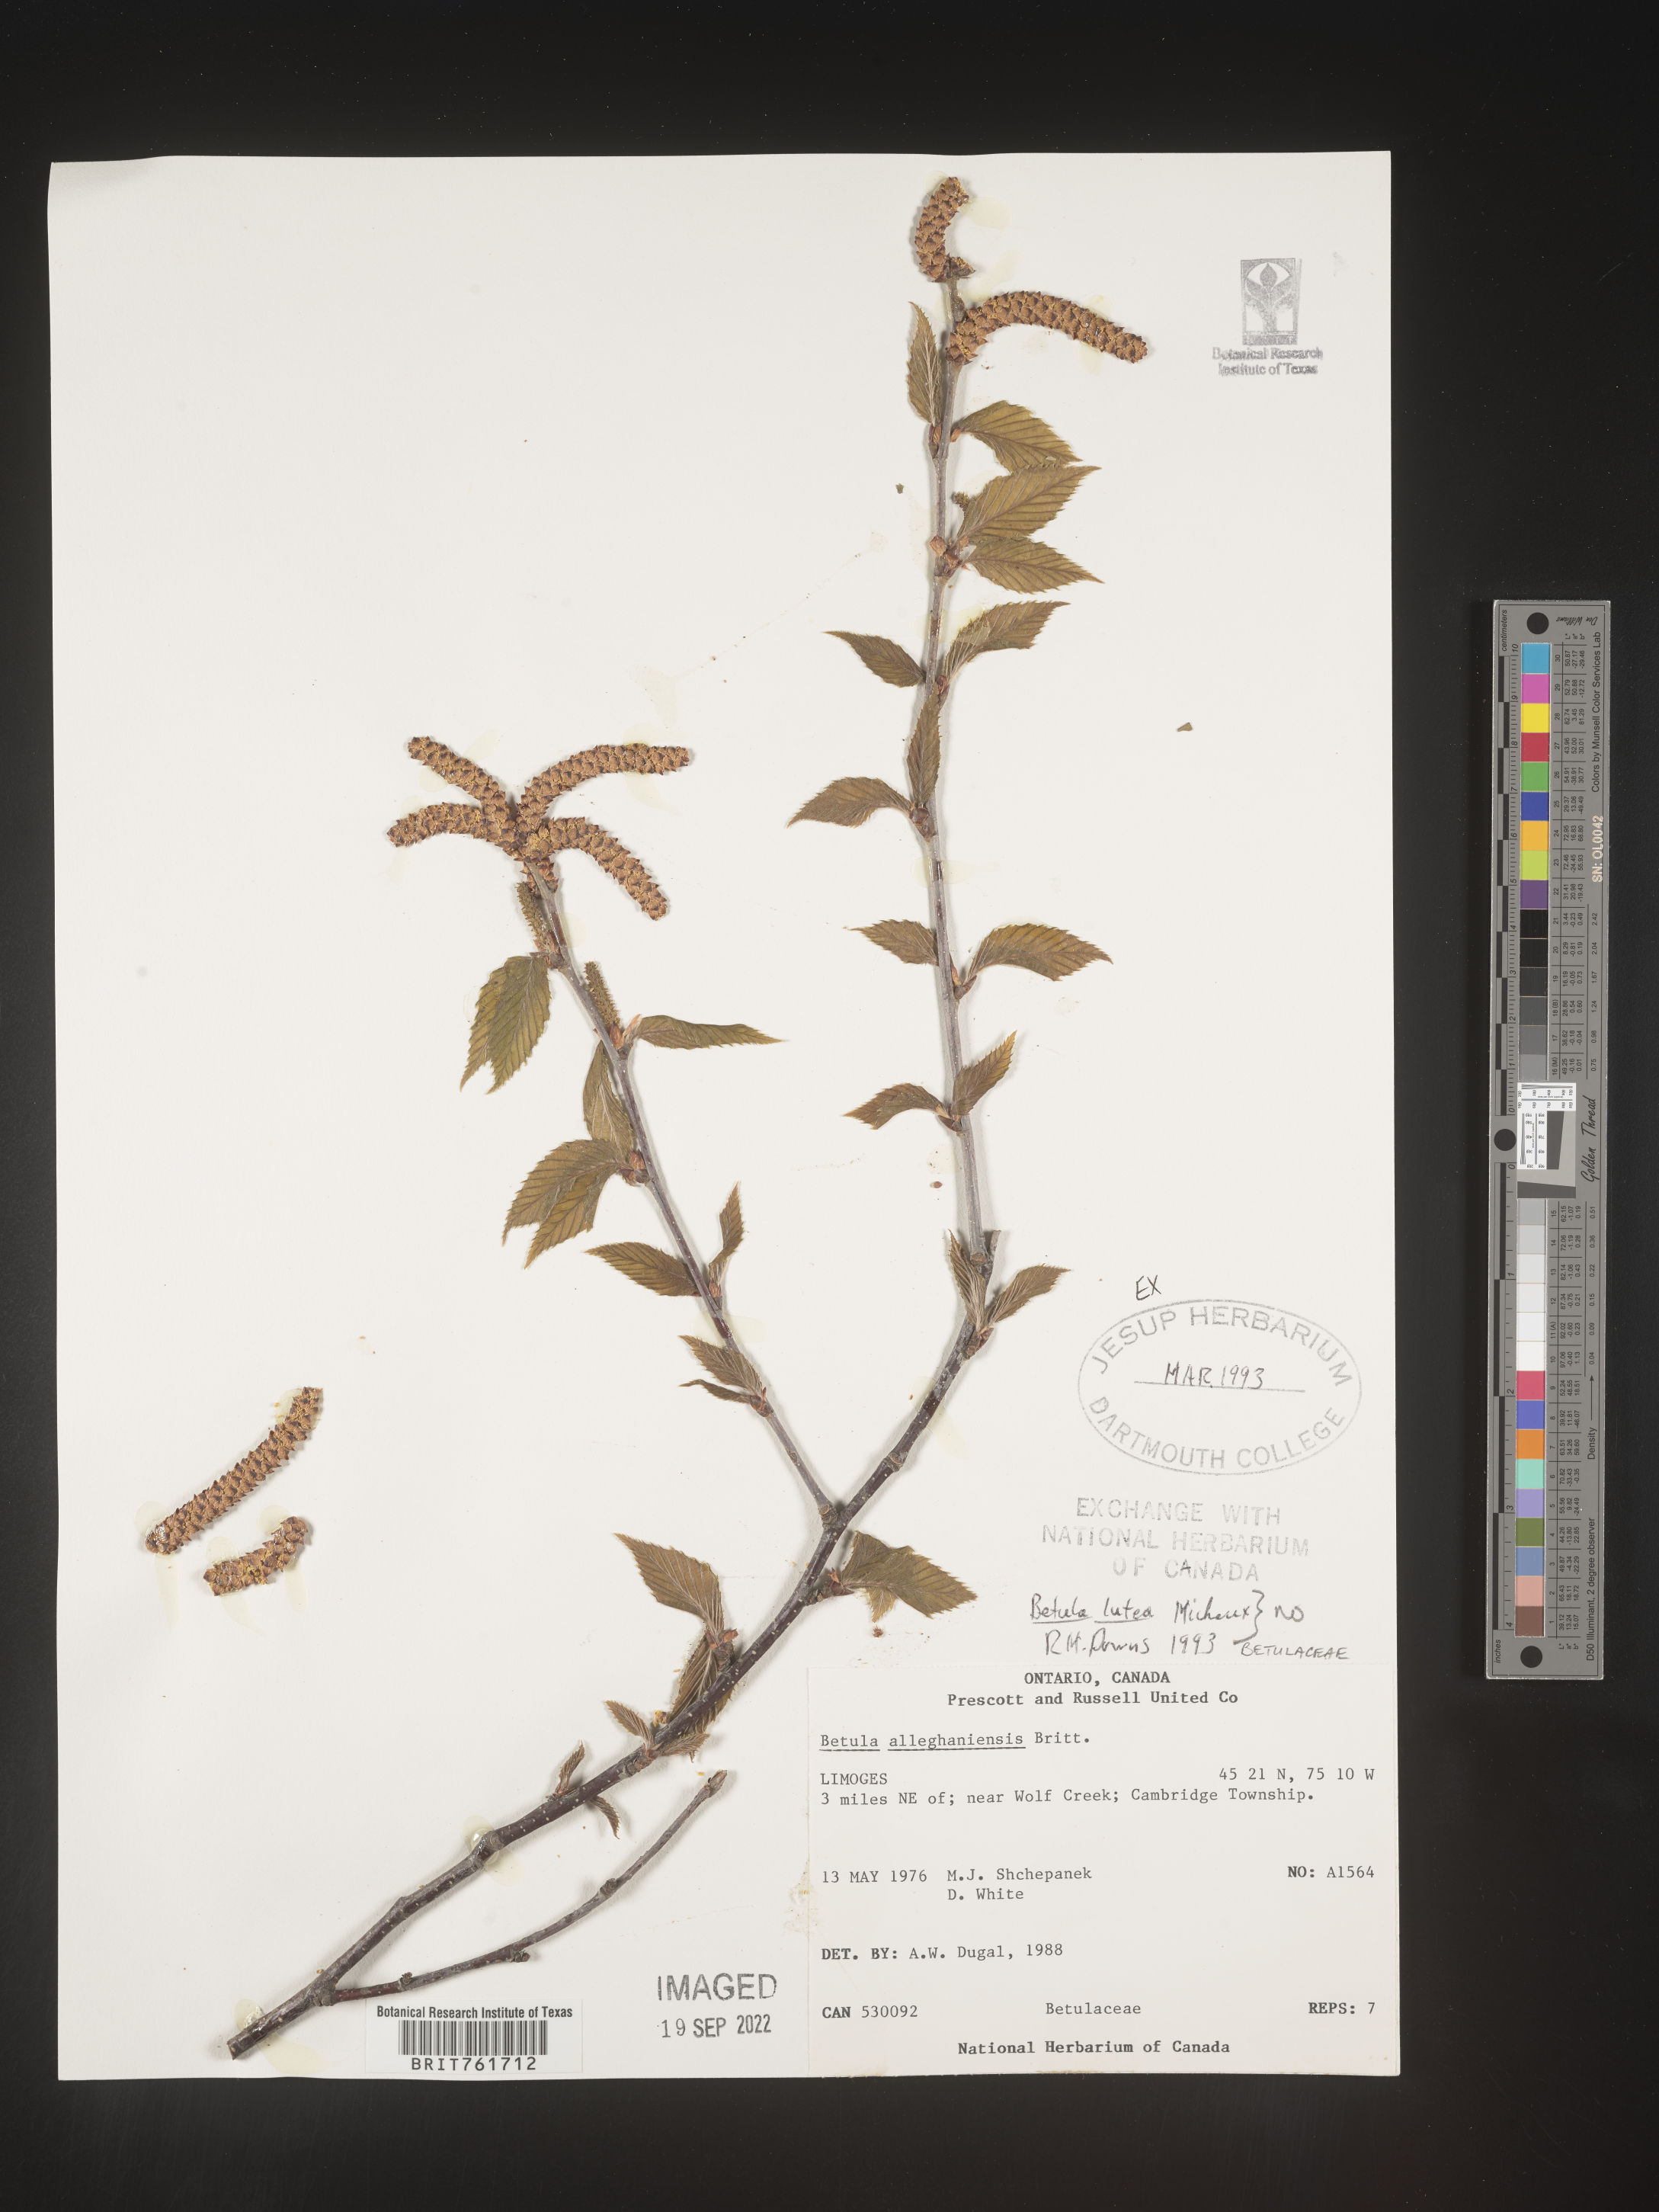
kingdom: Plantae
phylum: Tracheophyta
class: Magnoliopsida
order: Fagales
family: Betulaceae
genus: Betula
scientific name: Betula alleghaniensis
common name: Yellow birch
